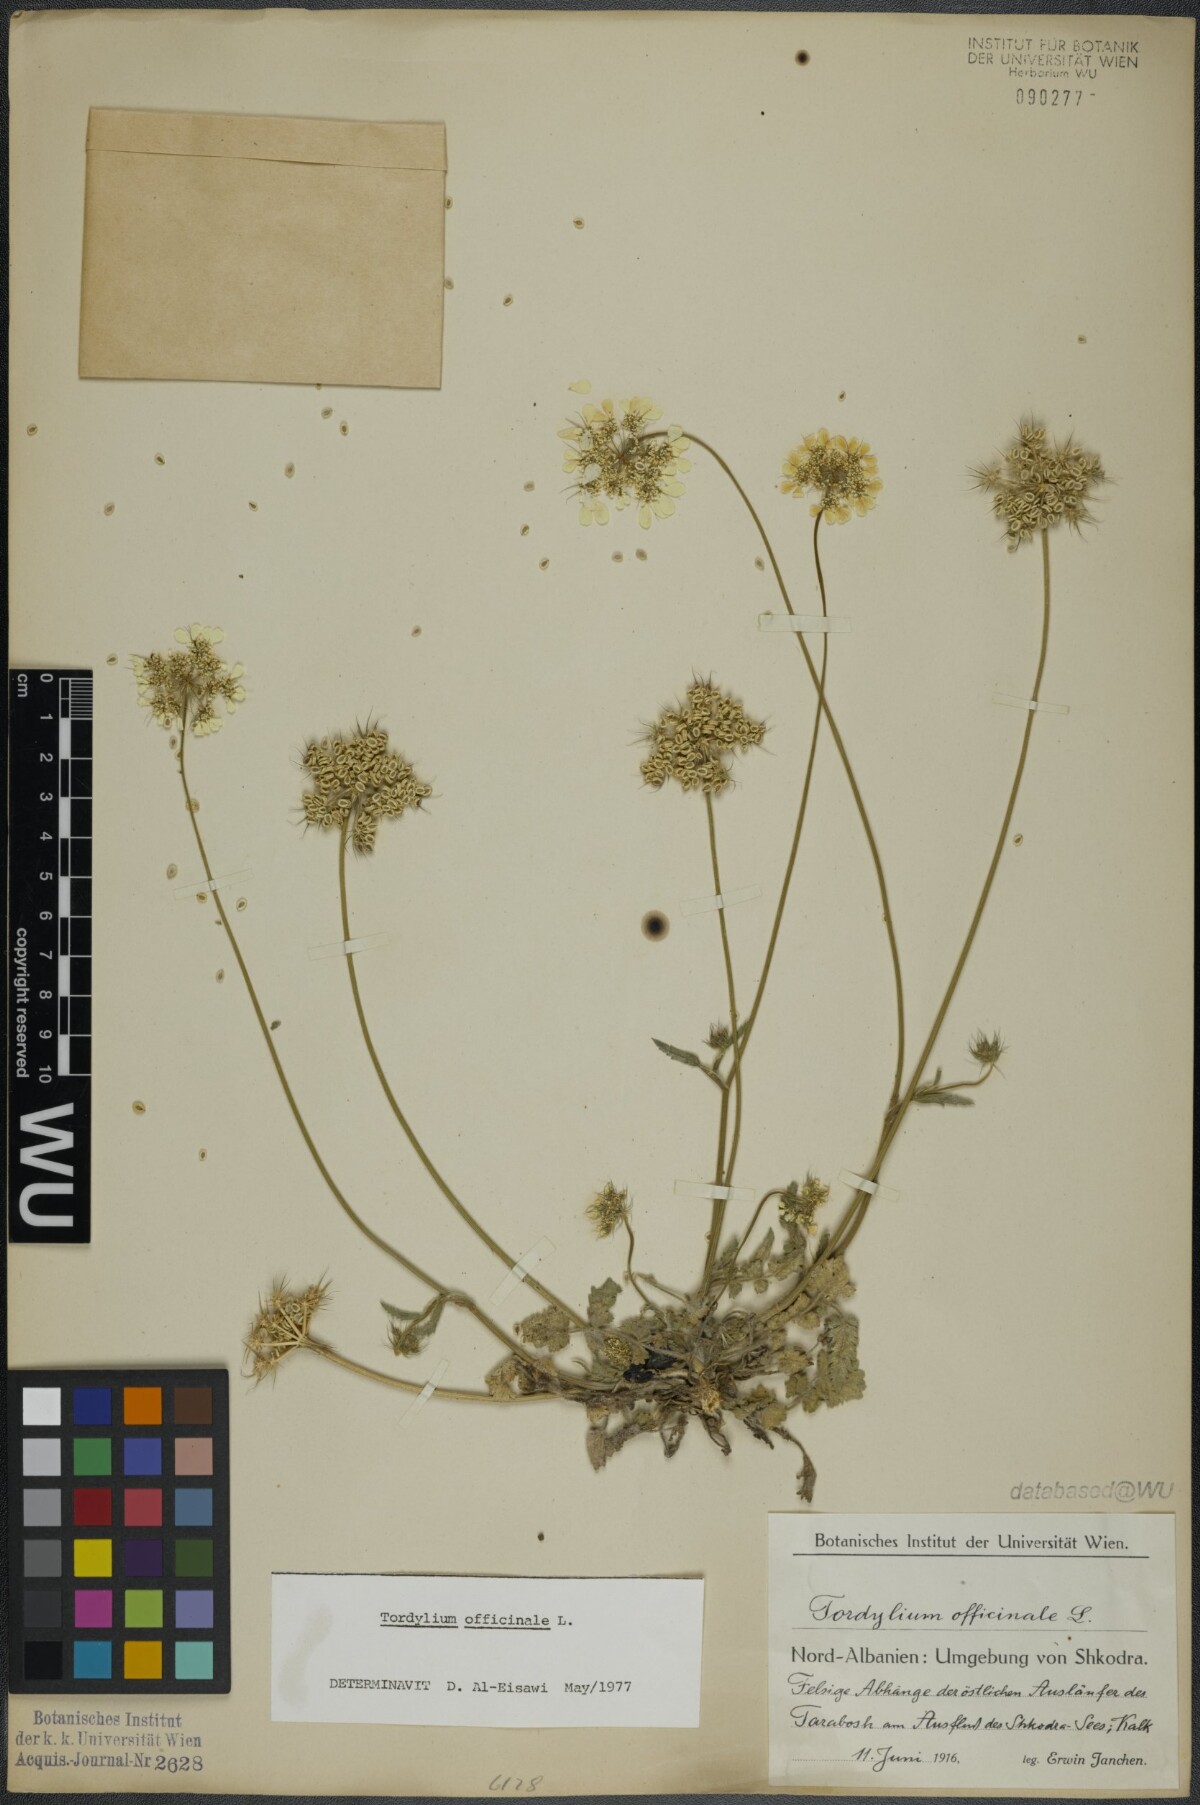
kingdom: Plantae
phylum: Tracheophyta
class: Magnoliopsida
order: Apiales
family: Apiaceae
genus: Tordylium
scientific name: Tordylium officinale
